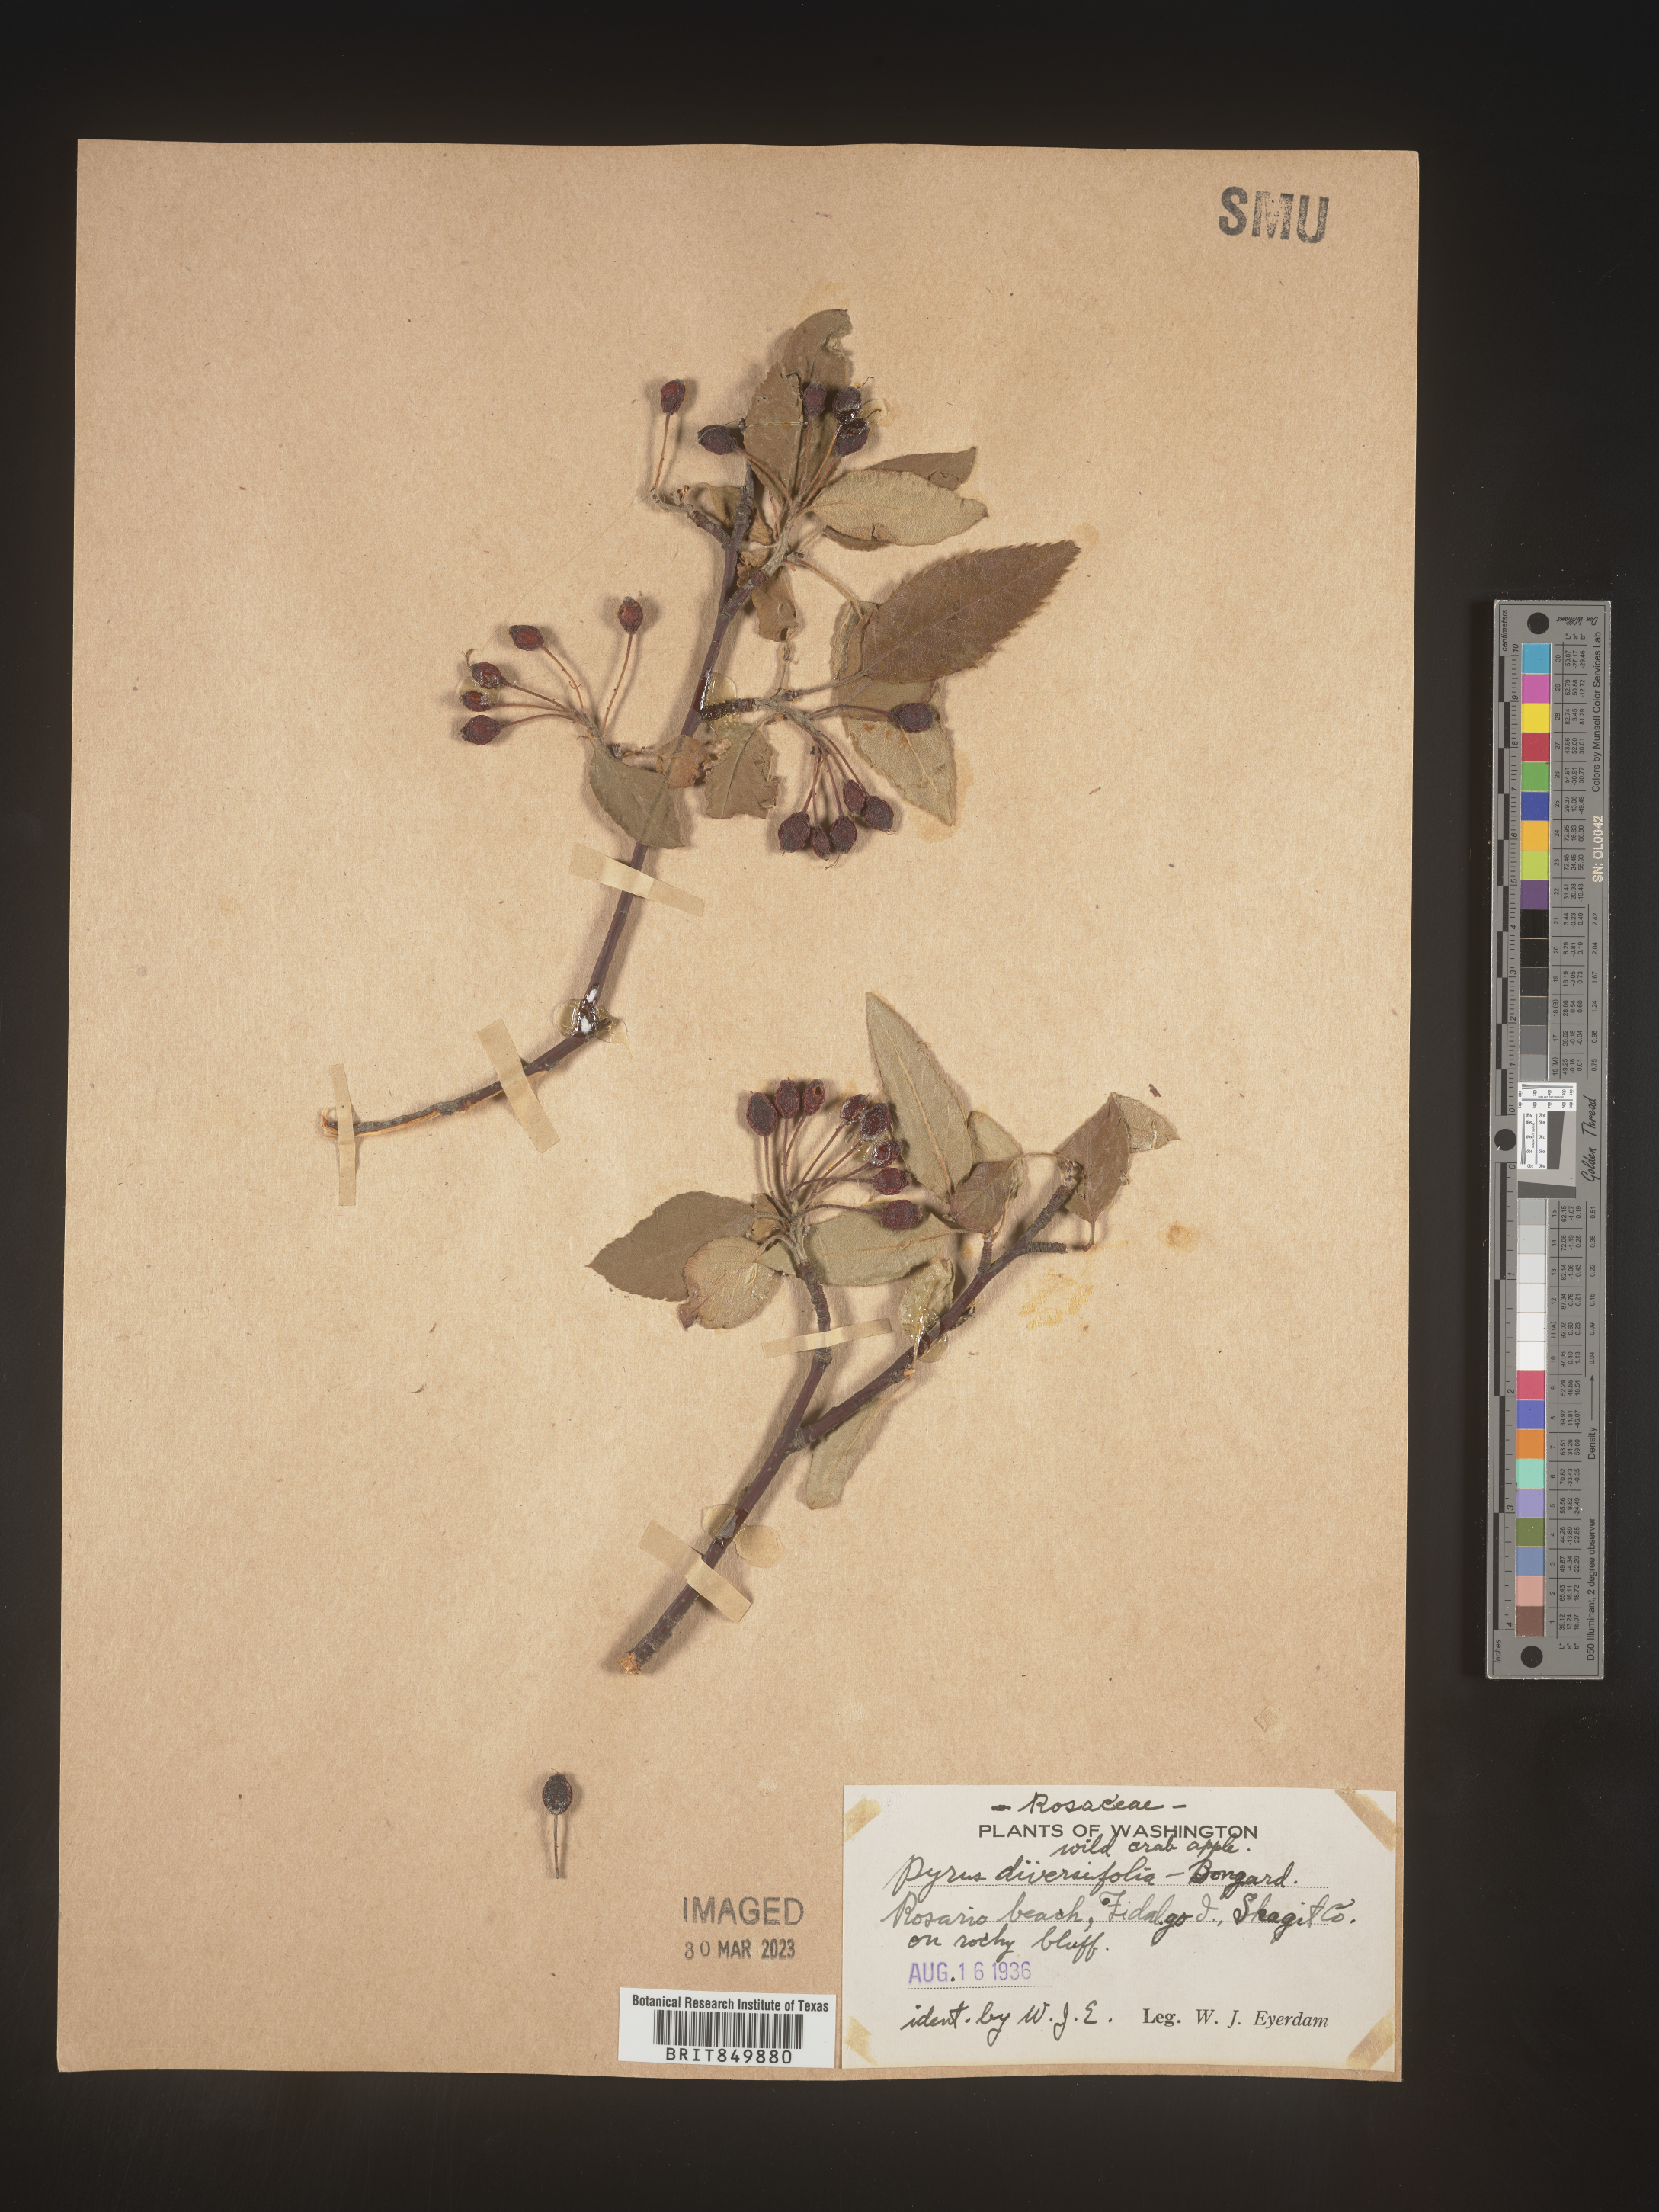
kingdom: Plantae
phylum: Tracheophyta
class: Magnoliopsida
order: Rosales
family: Rosaceae
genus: Sorbus
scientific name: Sorbus
